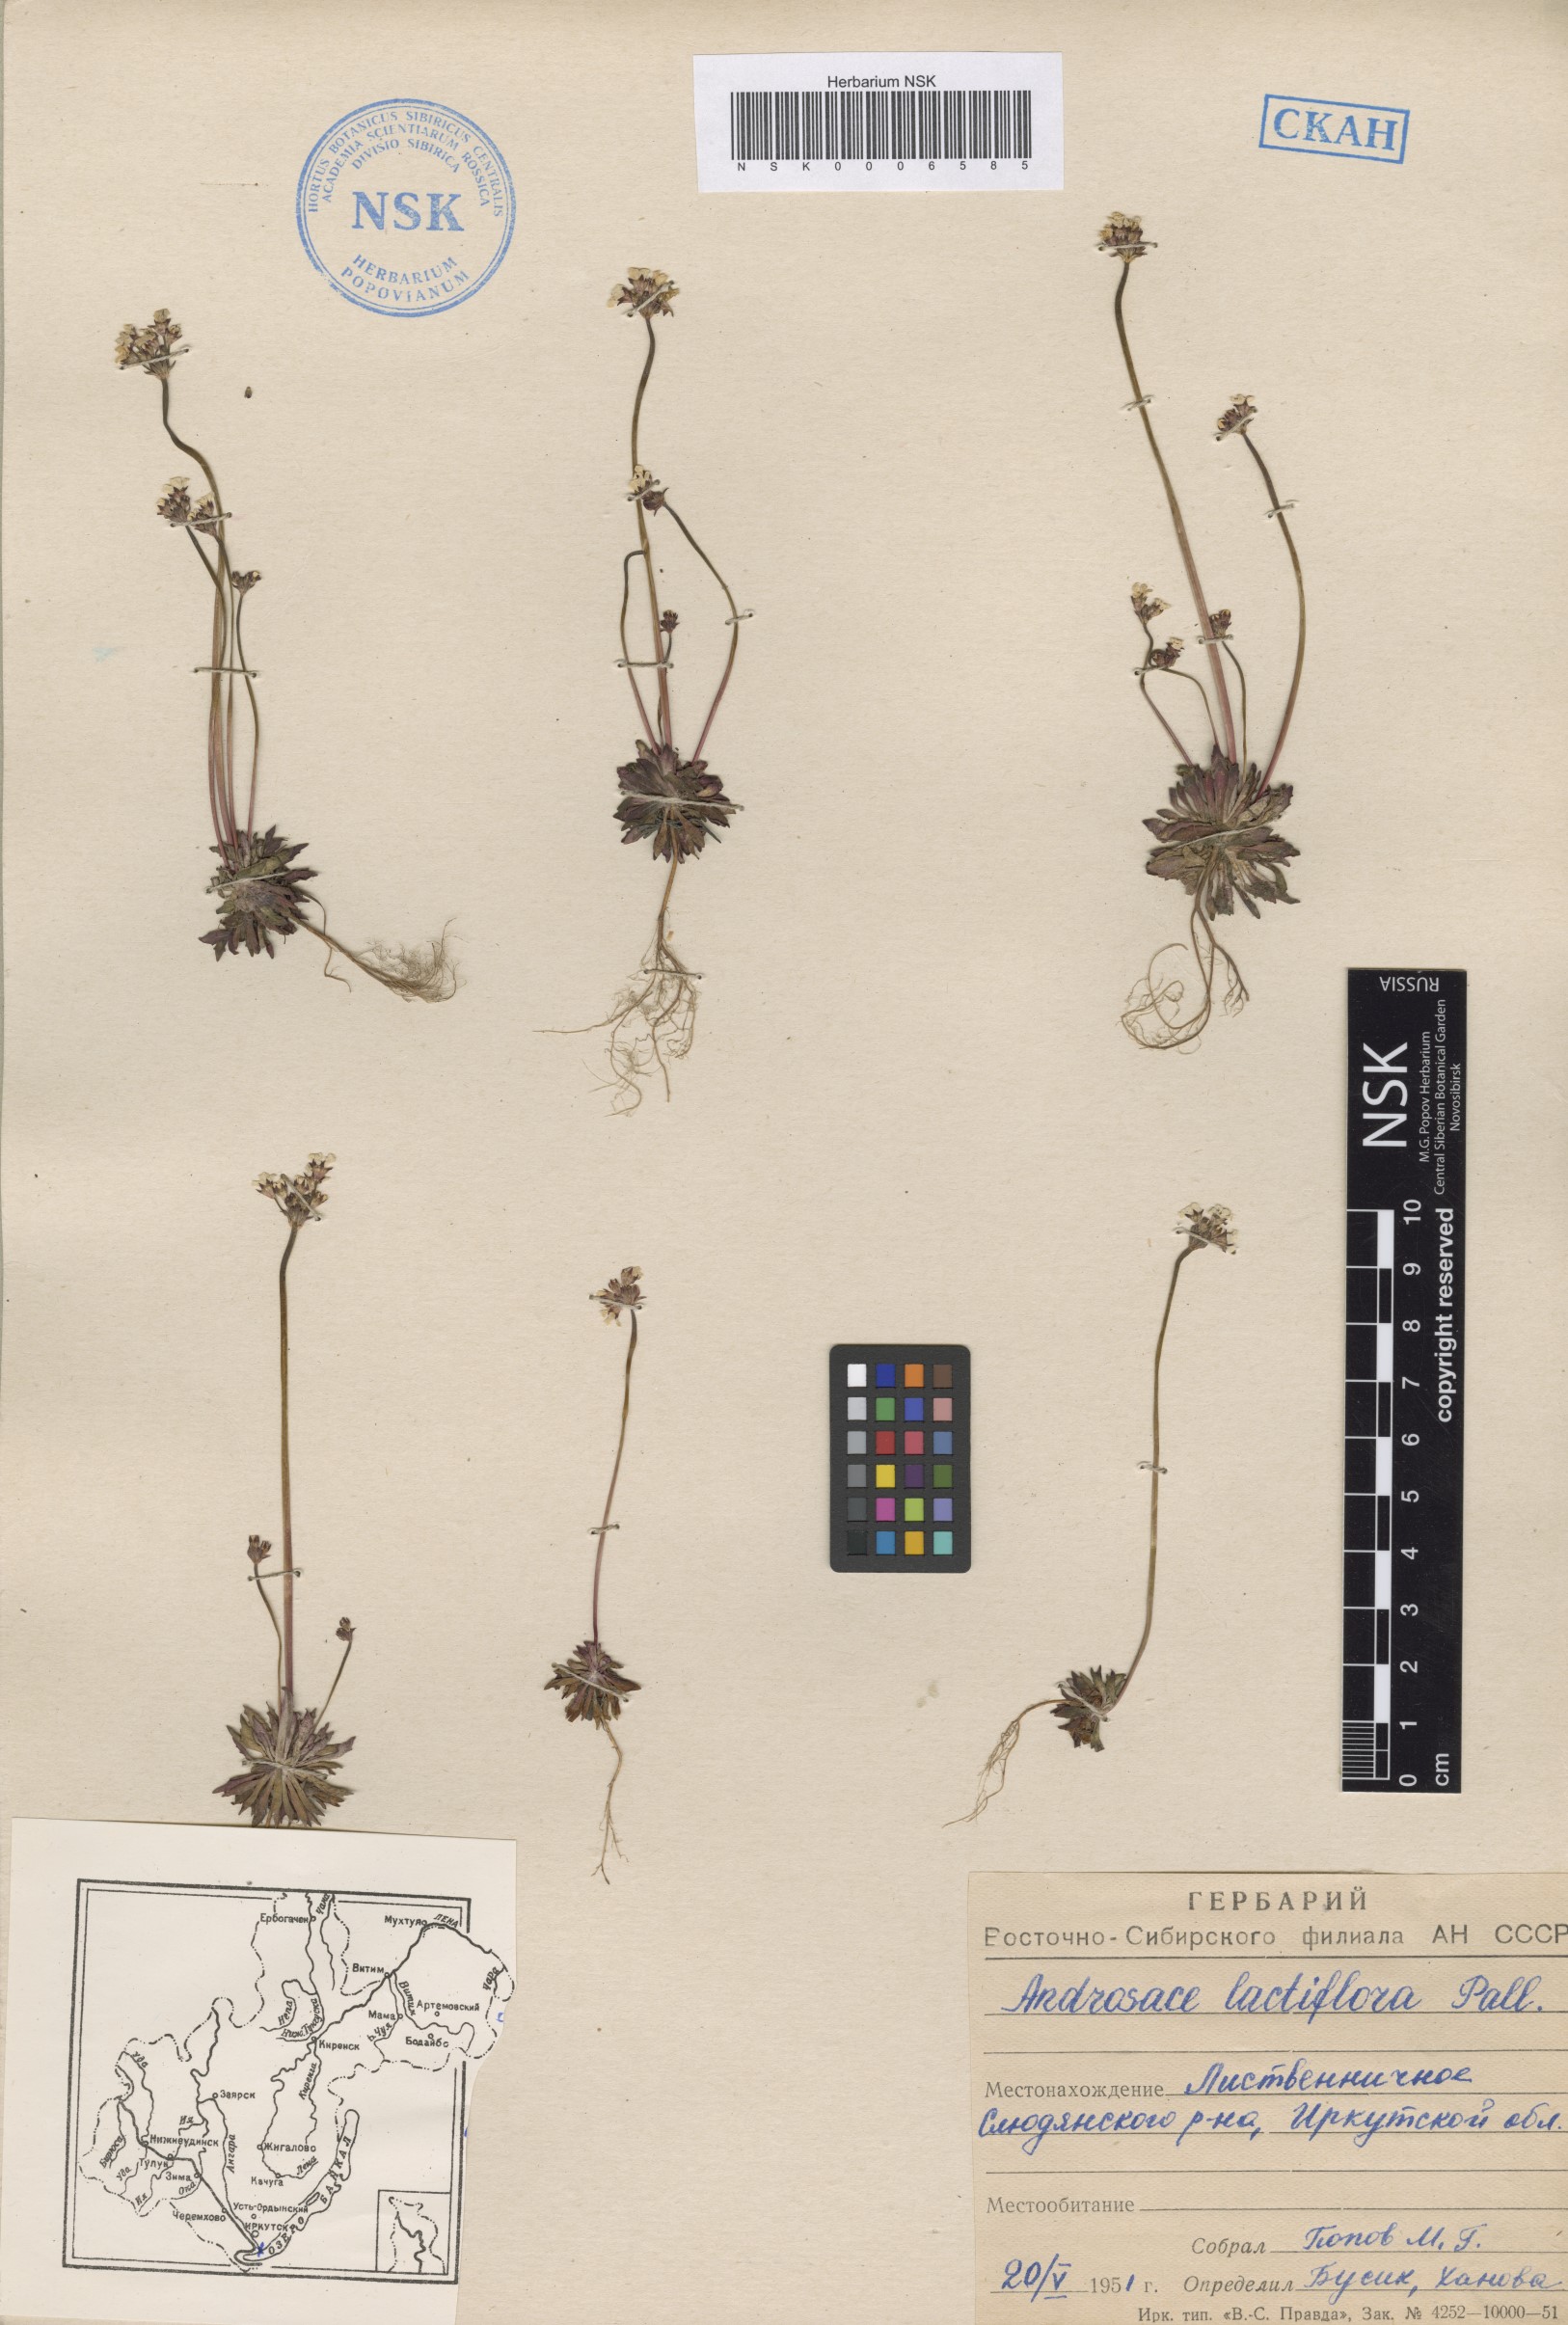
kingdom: Plantae
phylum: Tracheophyta
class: Magnoliopsida
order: Ericales
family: Primulaceae
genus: Androsace
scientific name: Androsace lactiflora
